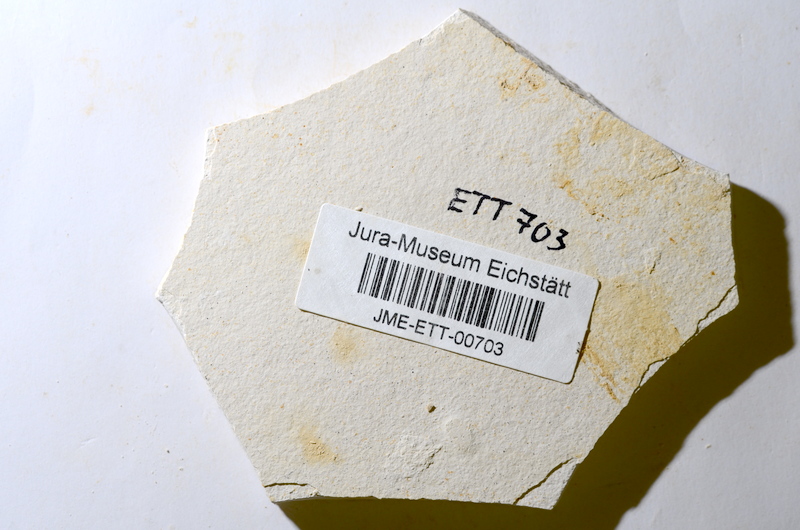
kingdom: Animalia
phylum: Chordata
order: Salmoniformes
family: Orthogonikleithridae
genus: Orthogonikleithrus
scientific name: Orthogonikleithrus hoelli
